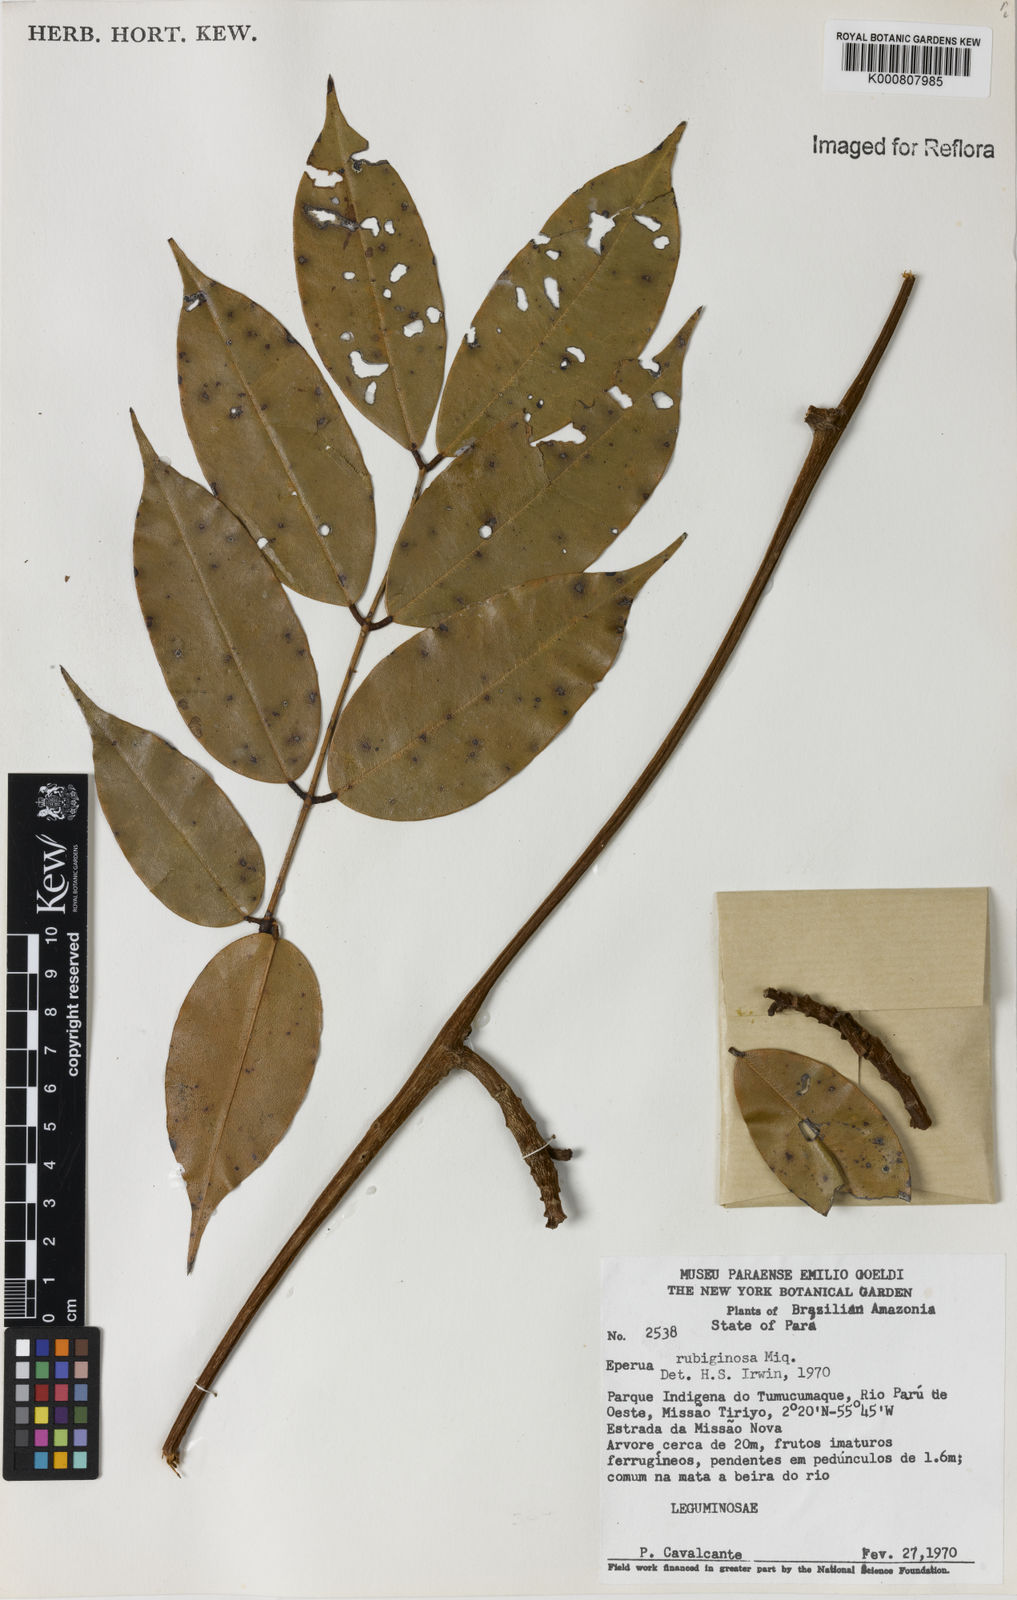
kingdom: Plantae
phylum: Tracheophyta
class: Magnoliopsida
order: Fabales
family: Fabaceae
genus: Eperua
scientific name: Eperua rubiginosa
